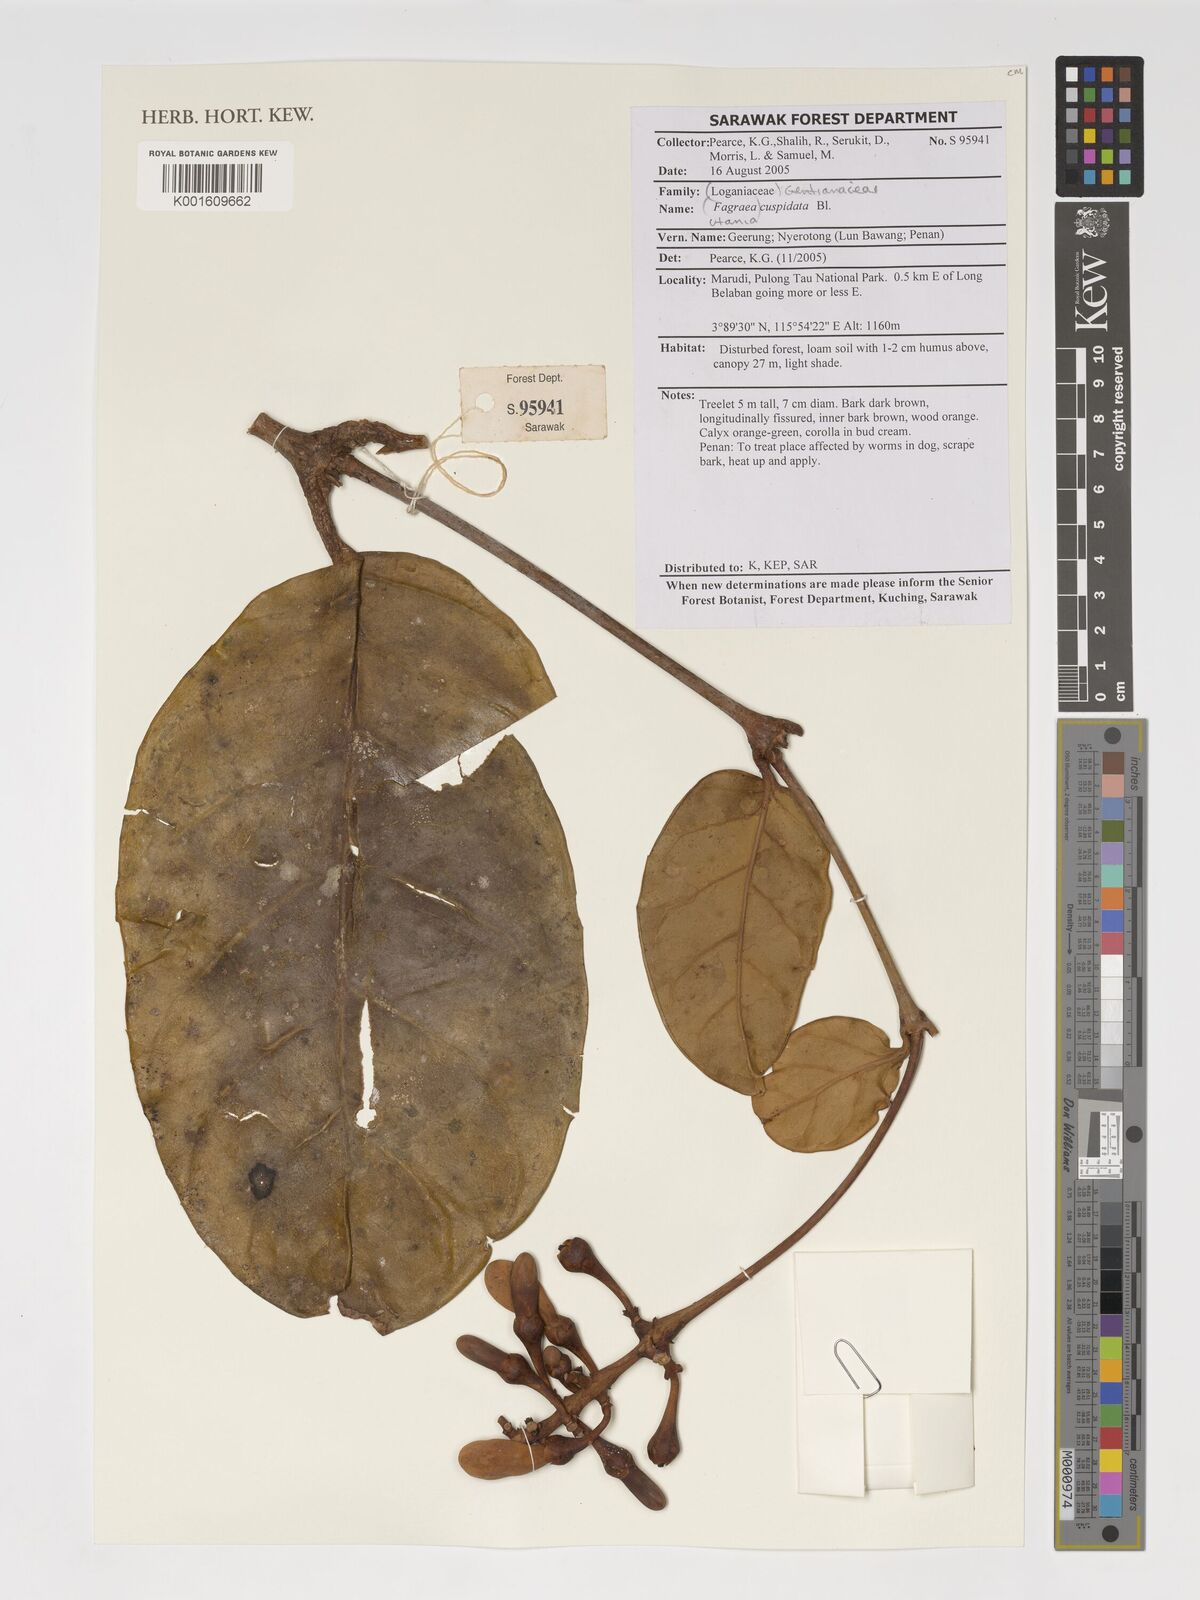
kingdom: Plantae
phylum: Tracheophyta
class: Magnoliopsida
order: Gentianales
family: Gentianaceae
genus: Utania
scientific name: Utania cuspidata
